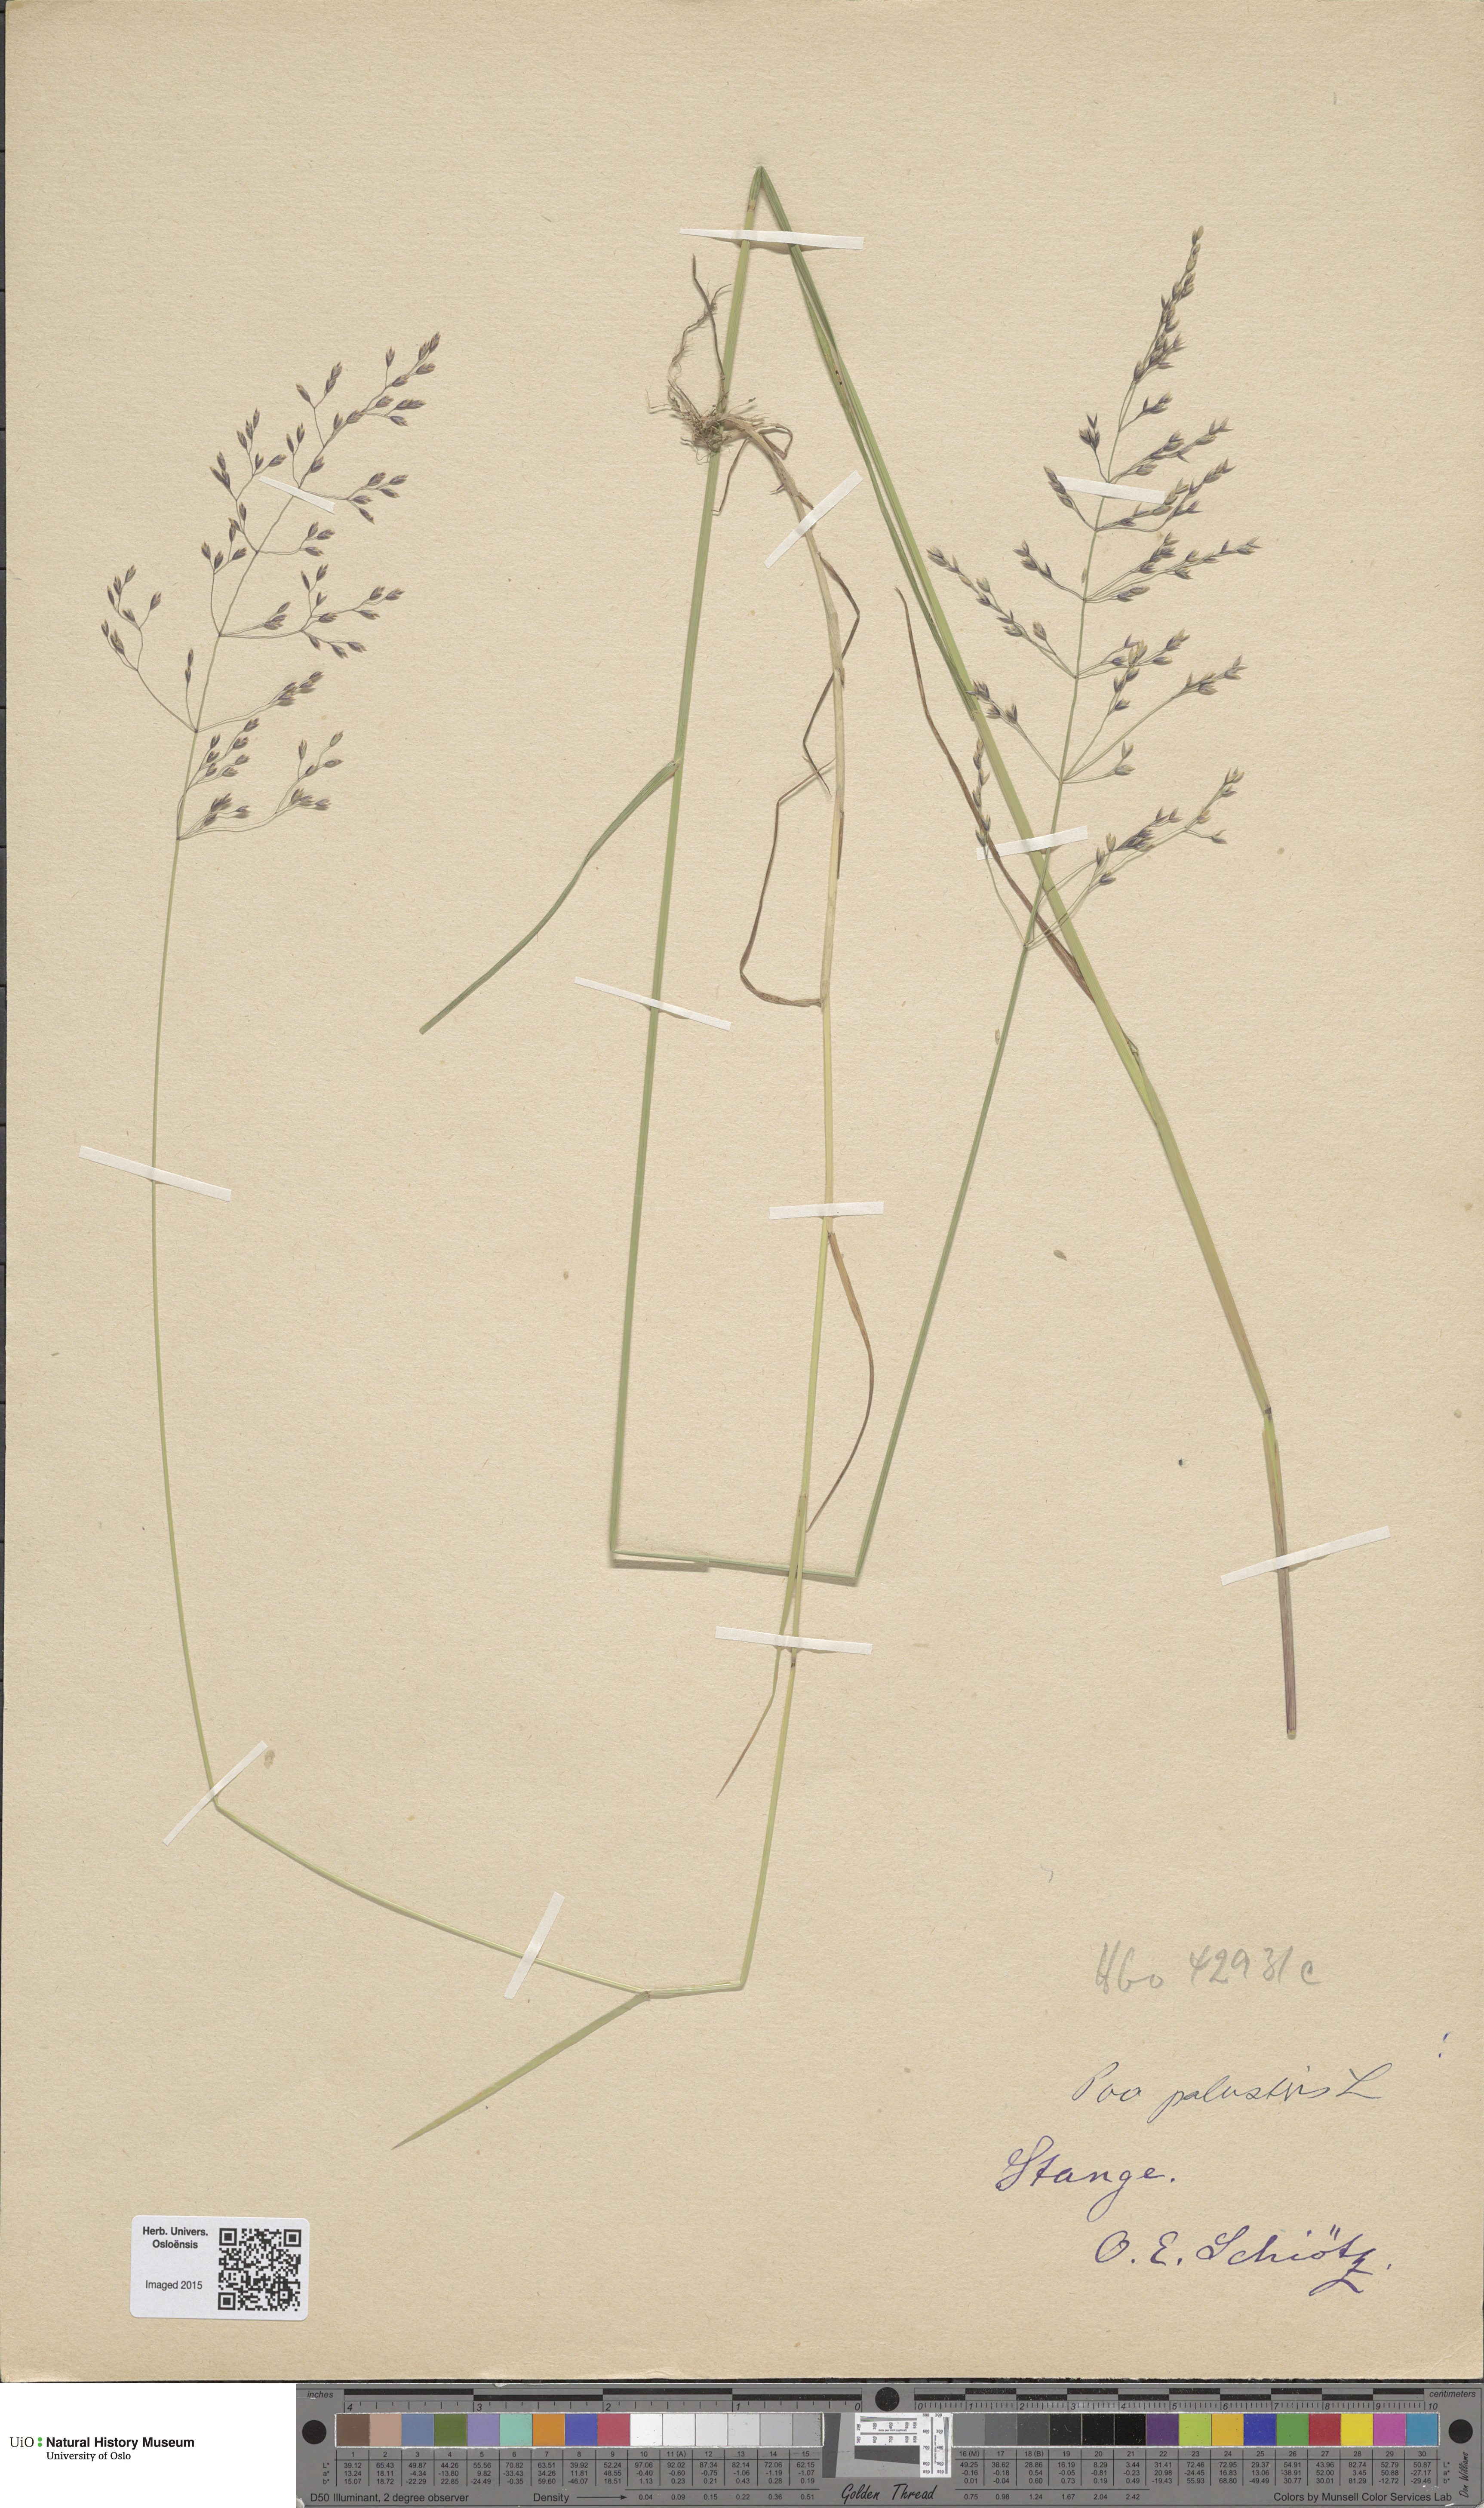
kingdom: Plantae
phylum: Tracheophyta
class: Liliopsida
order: Poales
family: Poaceae
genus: Poa
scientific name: Poa palustris
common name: Swamp meadow-grass
